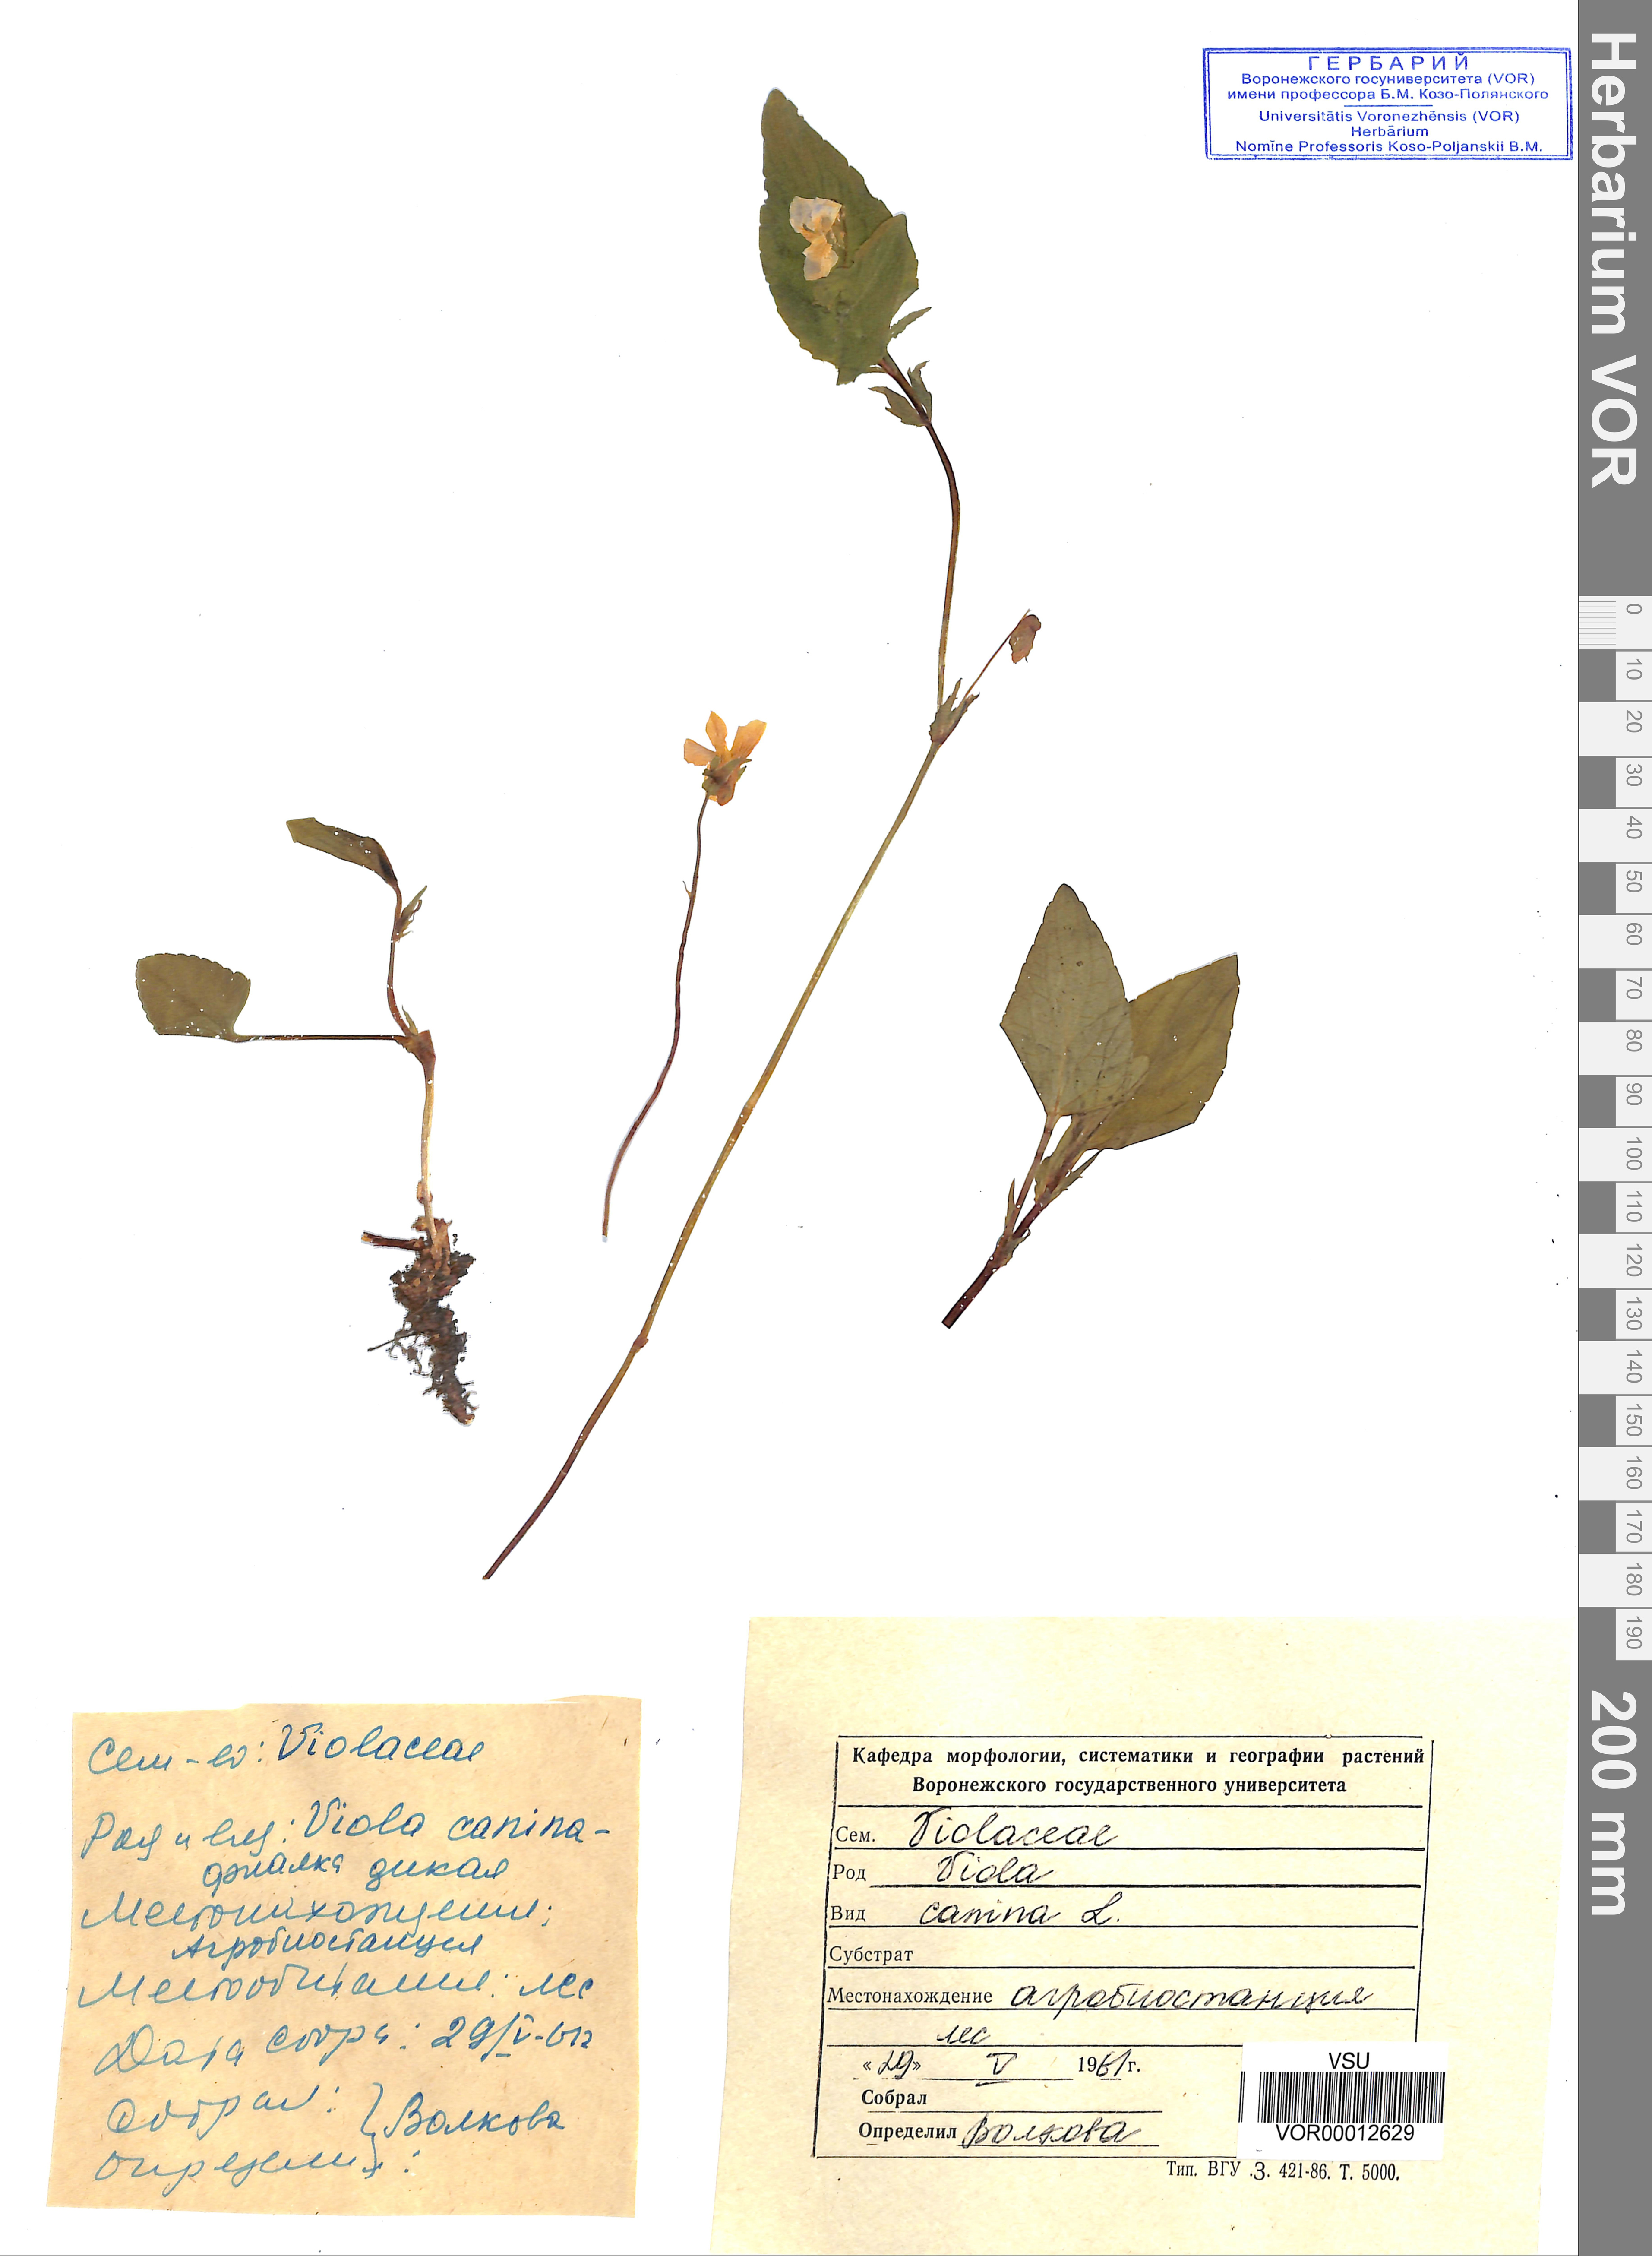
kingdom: Plantae
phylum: Tracheophyta
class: Magnoliopsida
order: Malpighiales
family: Violaceae
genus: Viola
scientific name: Viola canina
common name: Heath dog-violet
